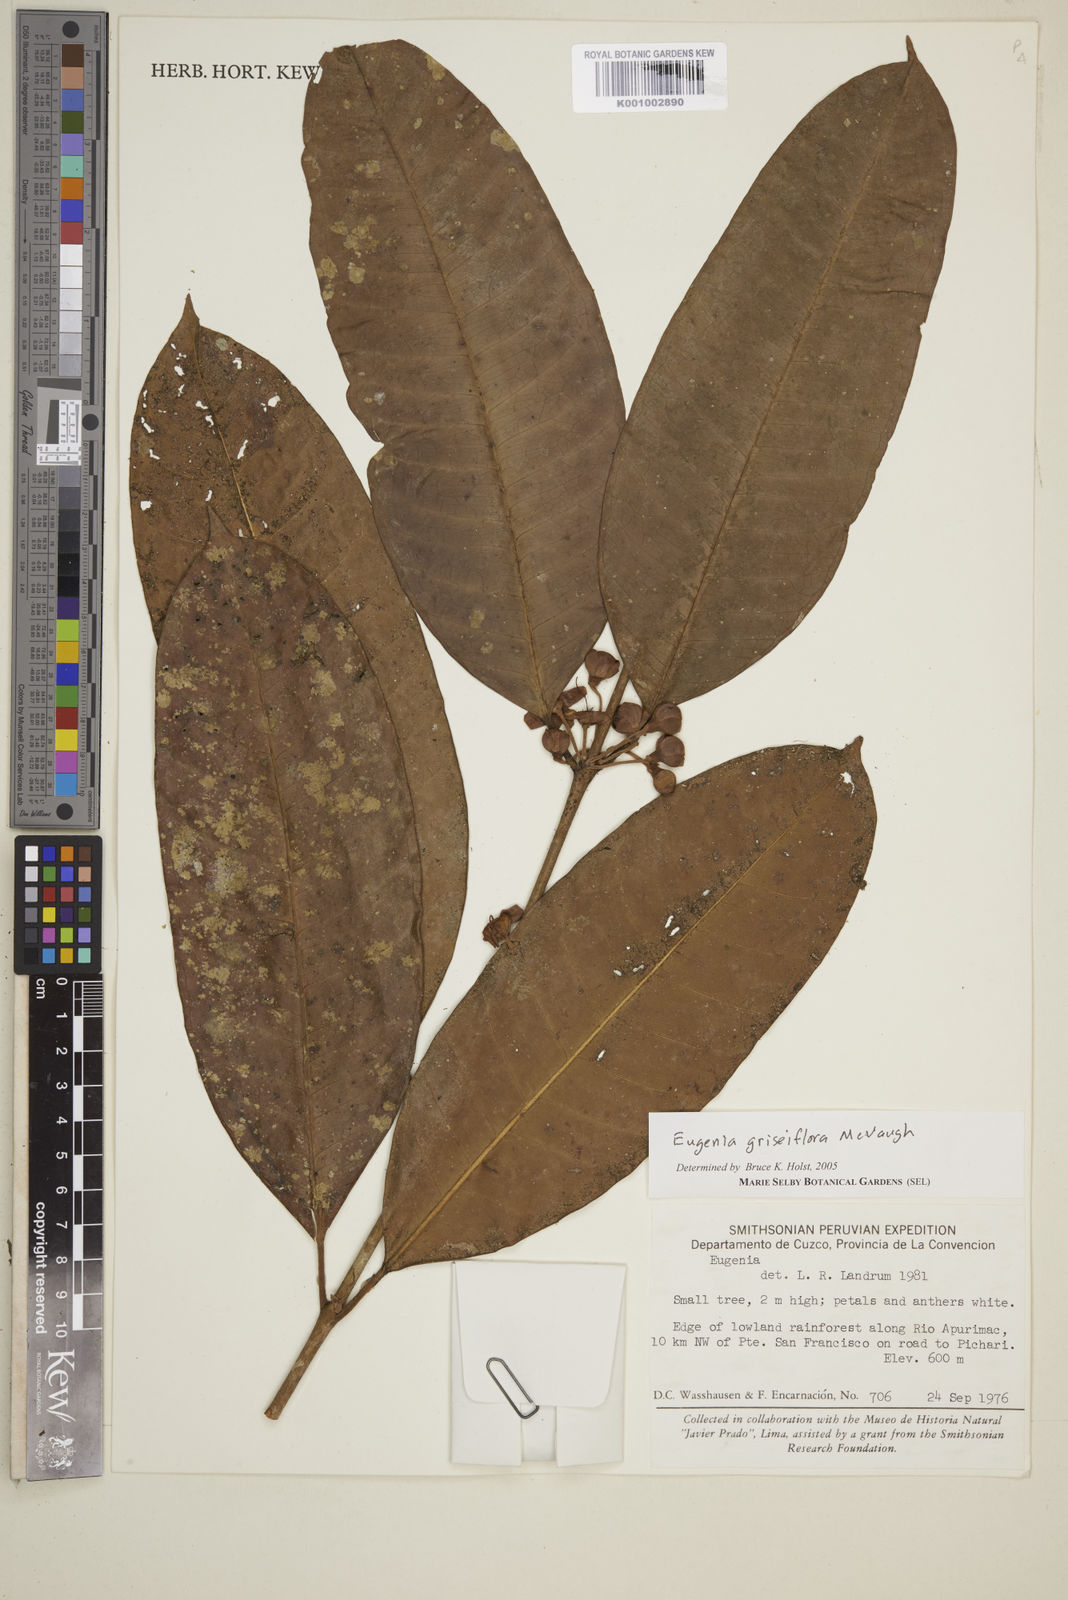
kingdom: Plantae
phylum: Tracheophyta
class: Magnoliopsida
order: Myrtales
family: Myrtaceae
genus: Eugenia
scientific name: Eugenia griseiflora
